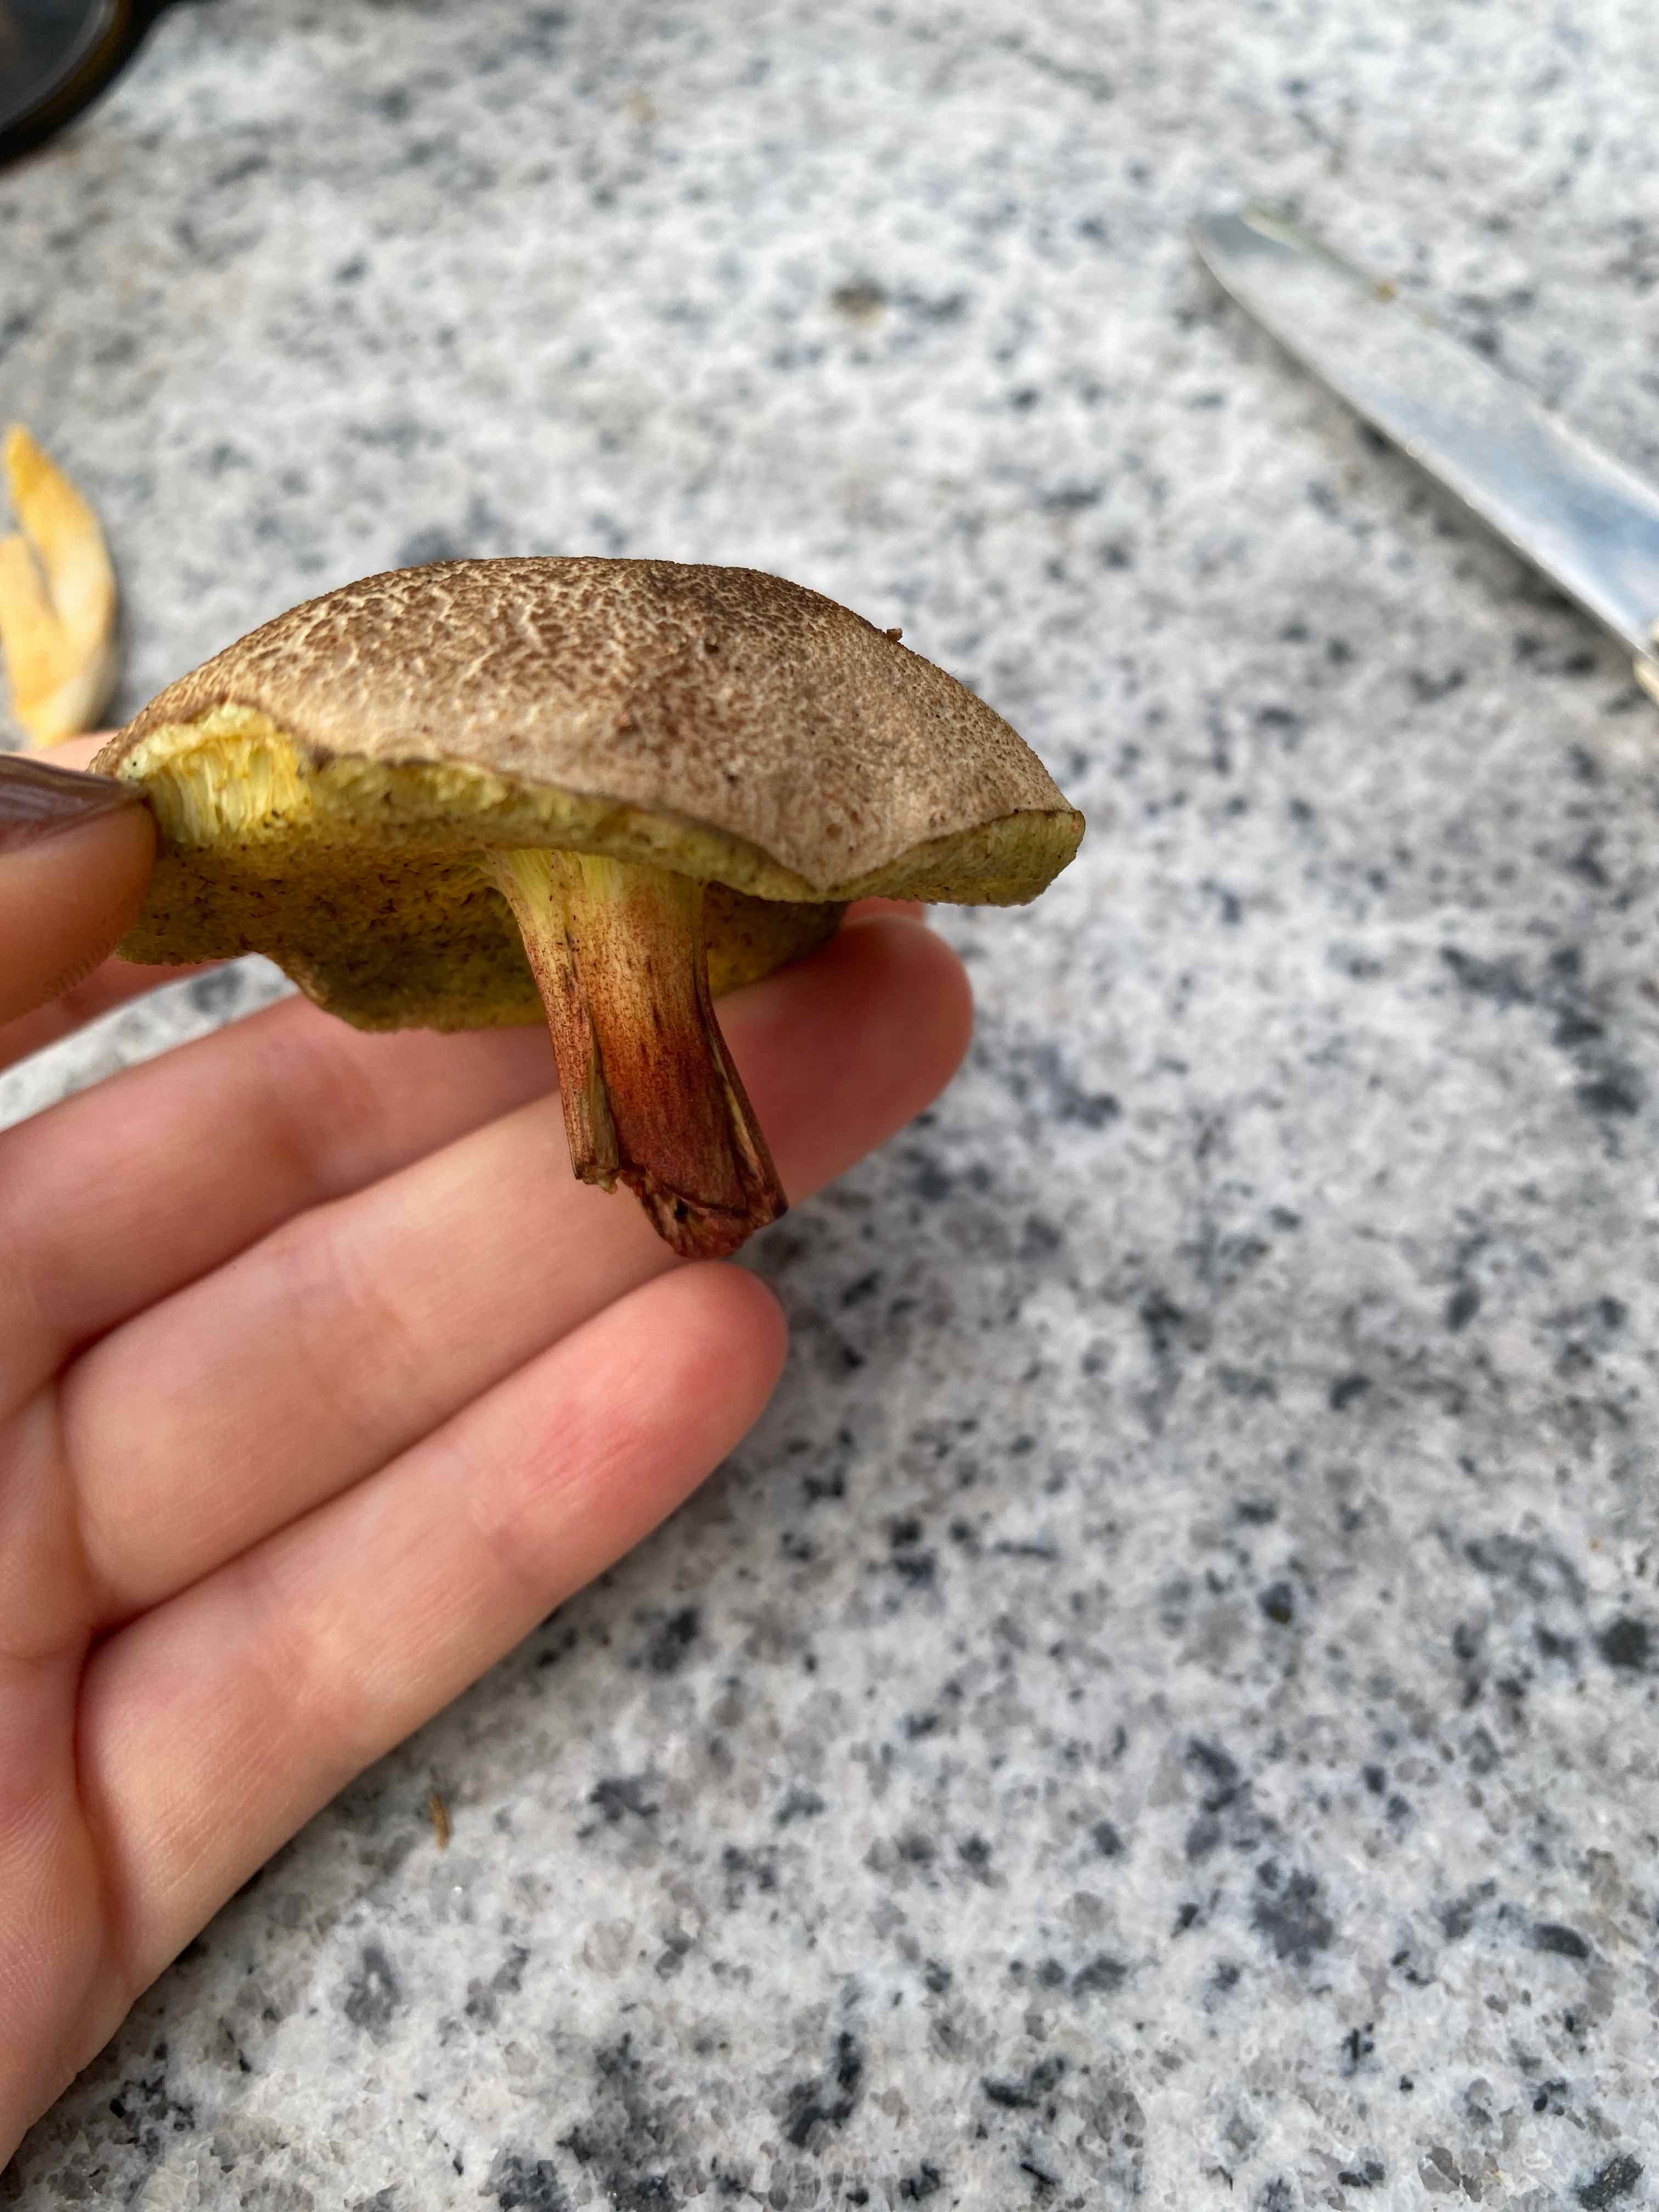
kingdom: Fungi
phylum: Basidiomycota
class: Agaricomycetes
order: Boletales
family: Boletaceae
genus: Xerocomellus
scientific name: Xerocomellus
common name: dværgrørhat
